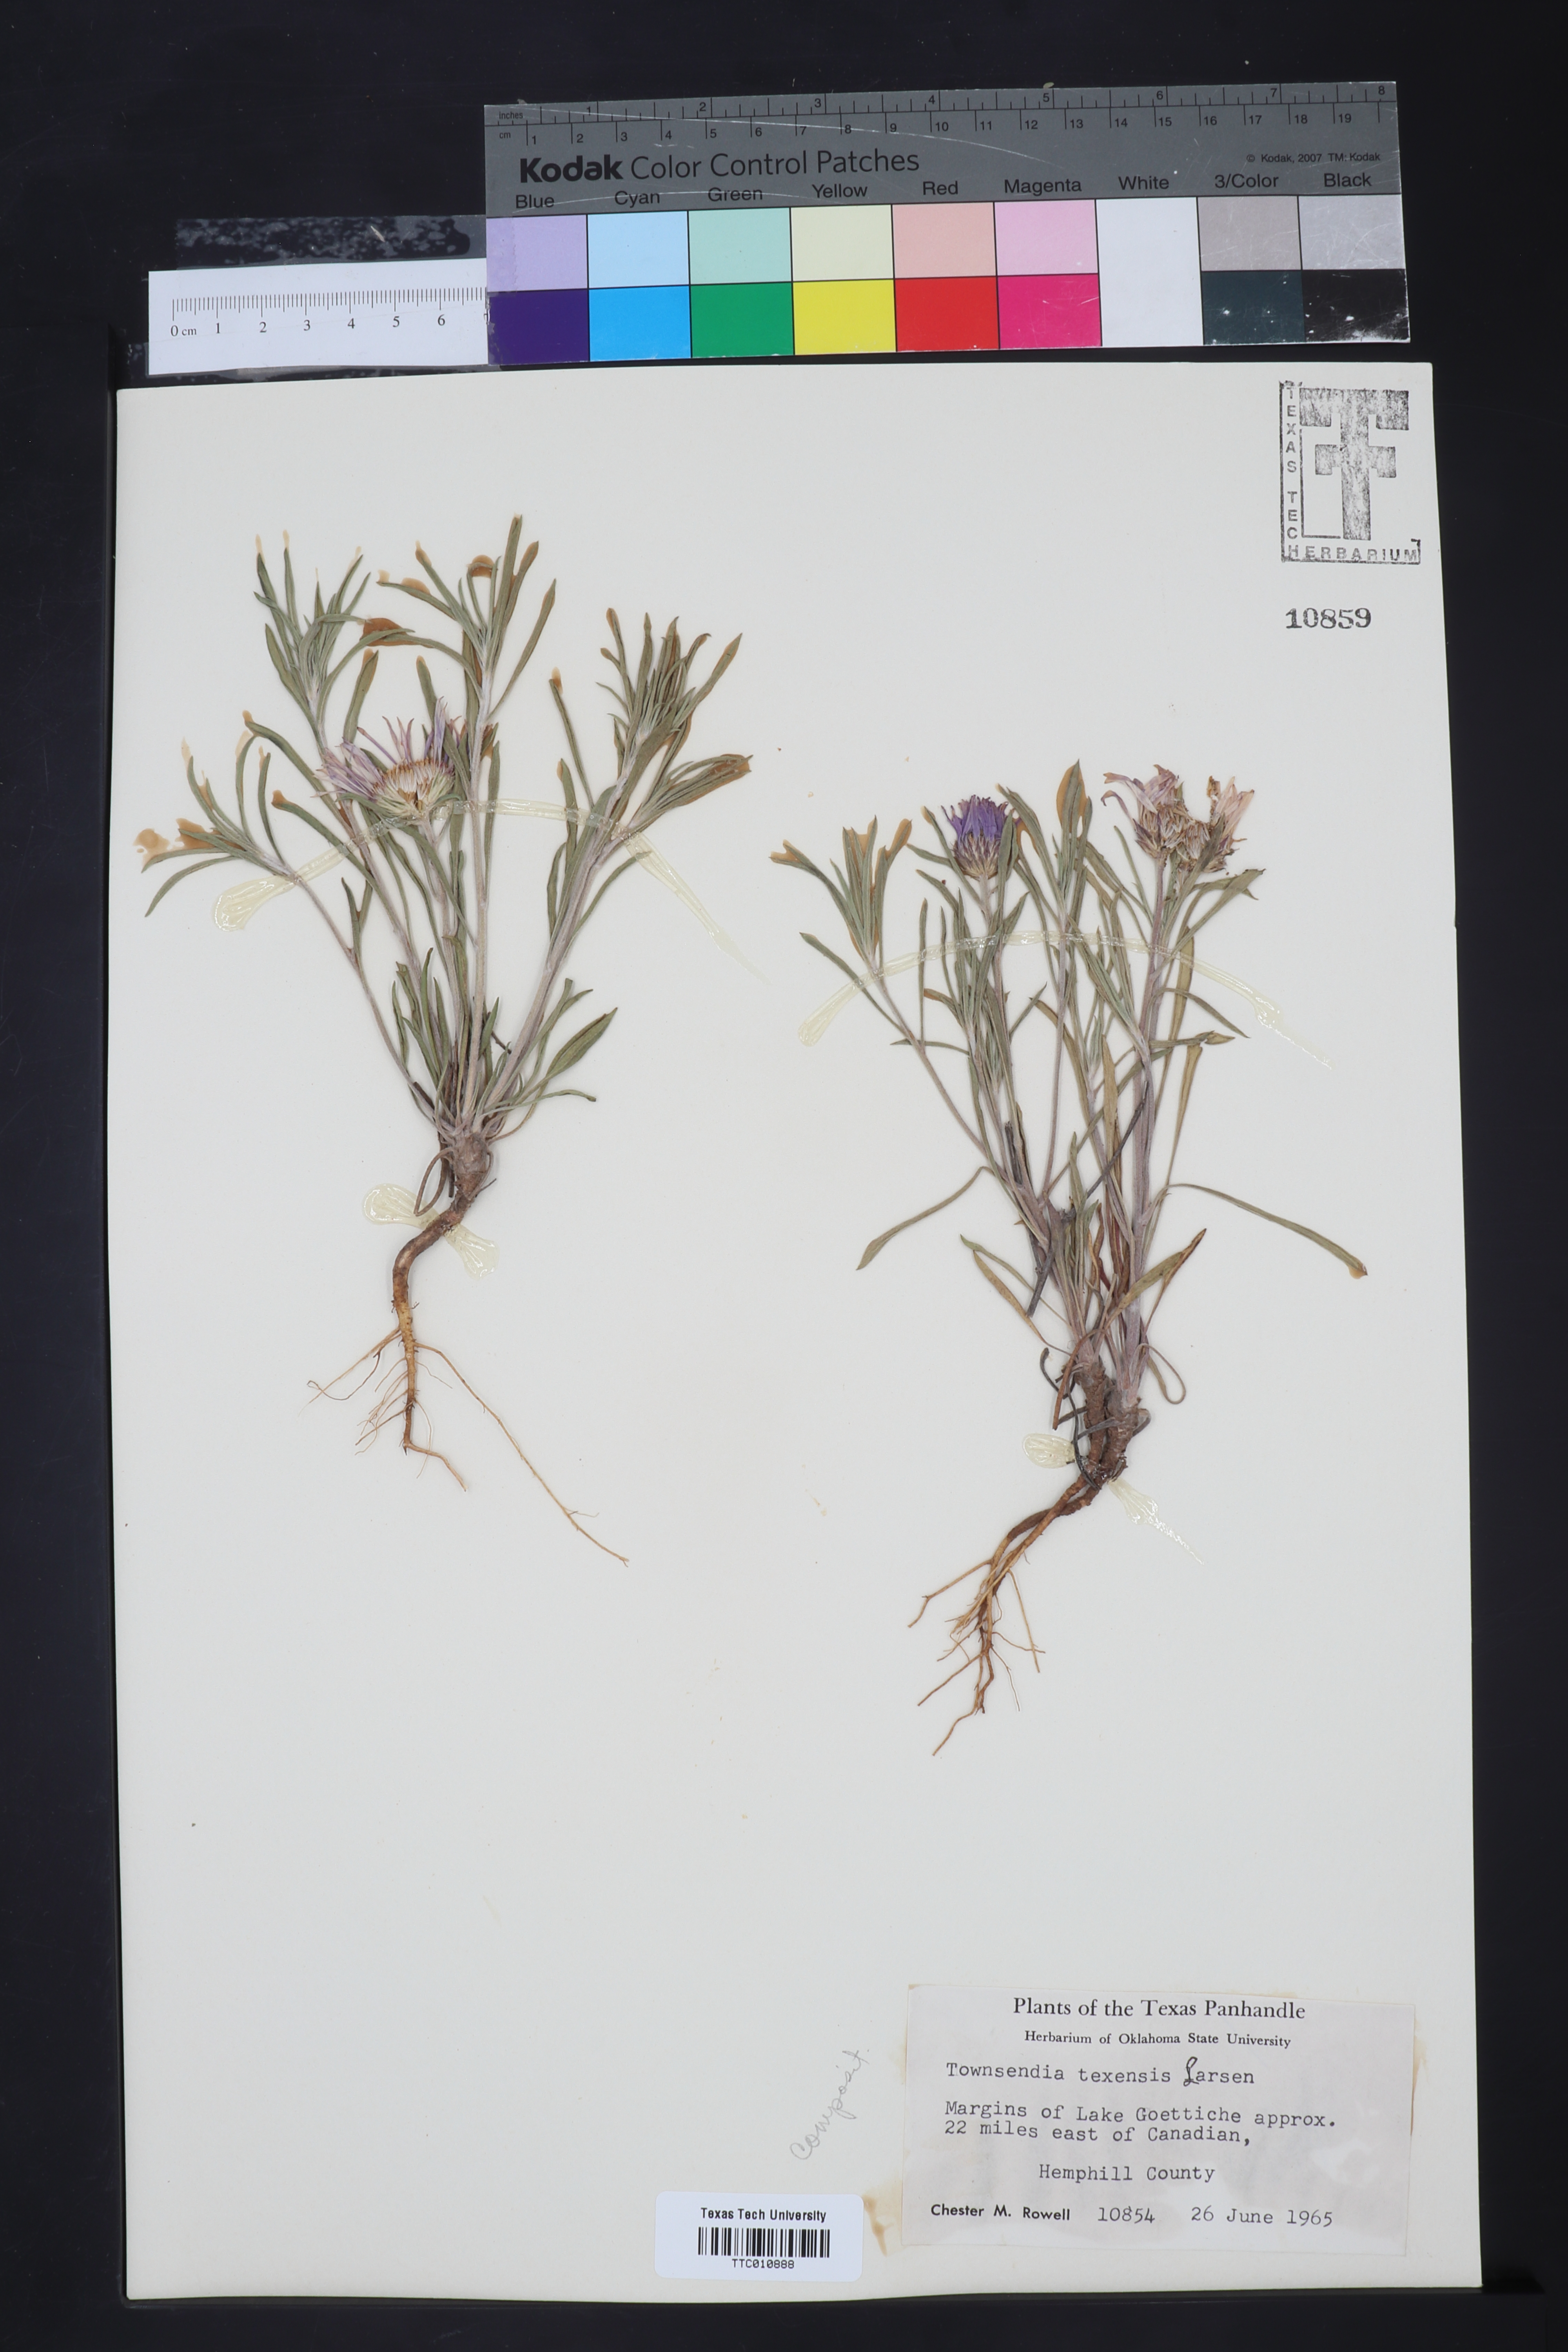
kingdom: Plantae
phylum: Tracheophyta
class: Magnoliopsida
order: Asterales
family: Asteraceae
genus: Townsendia
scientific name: Townsendia texensis
